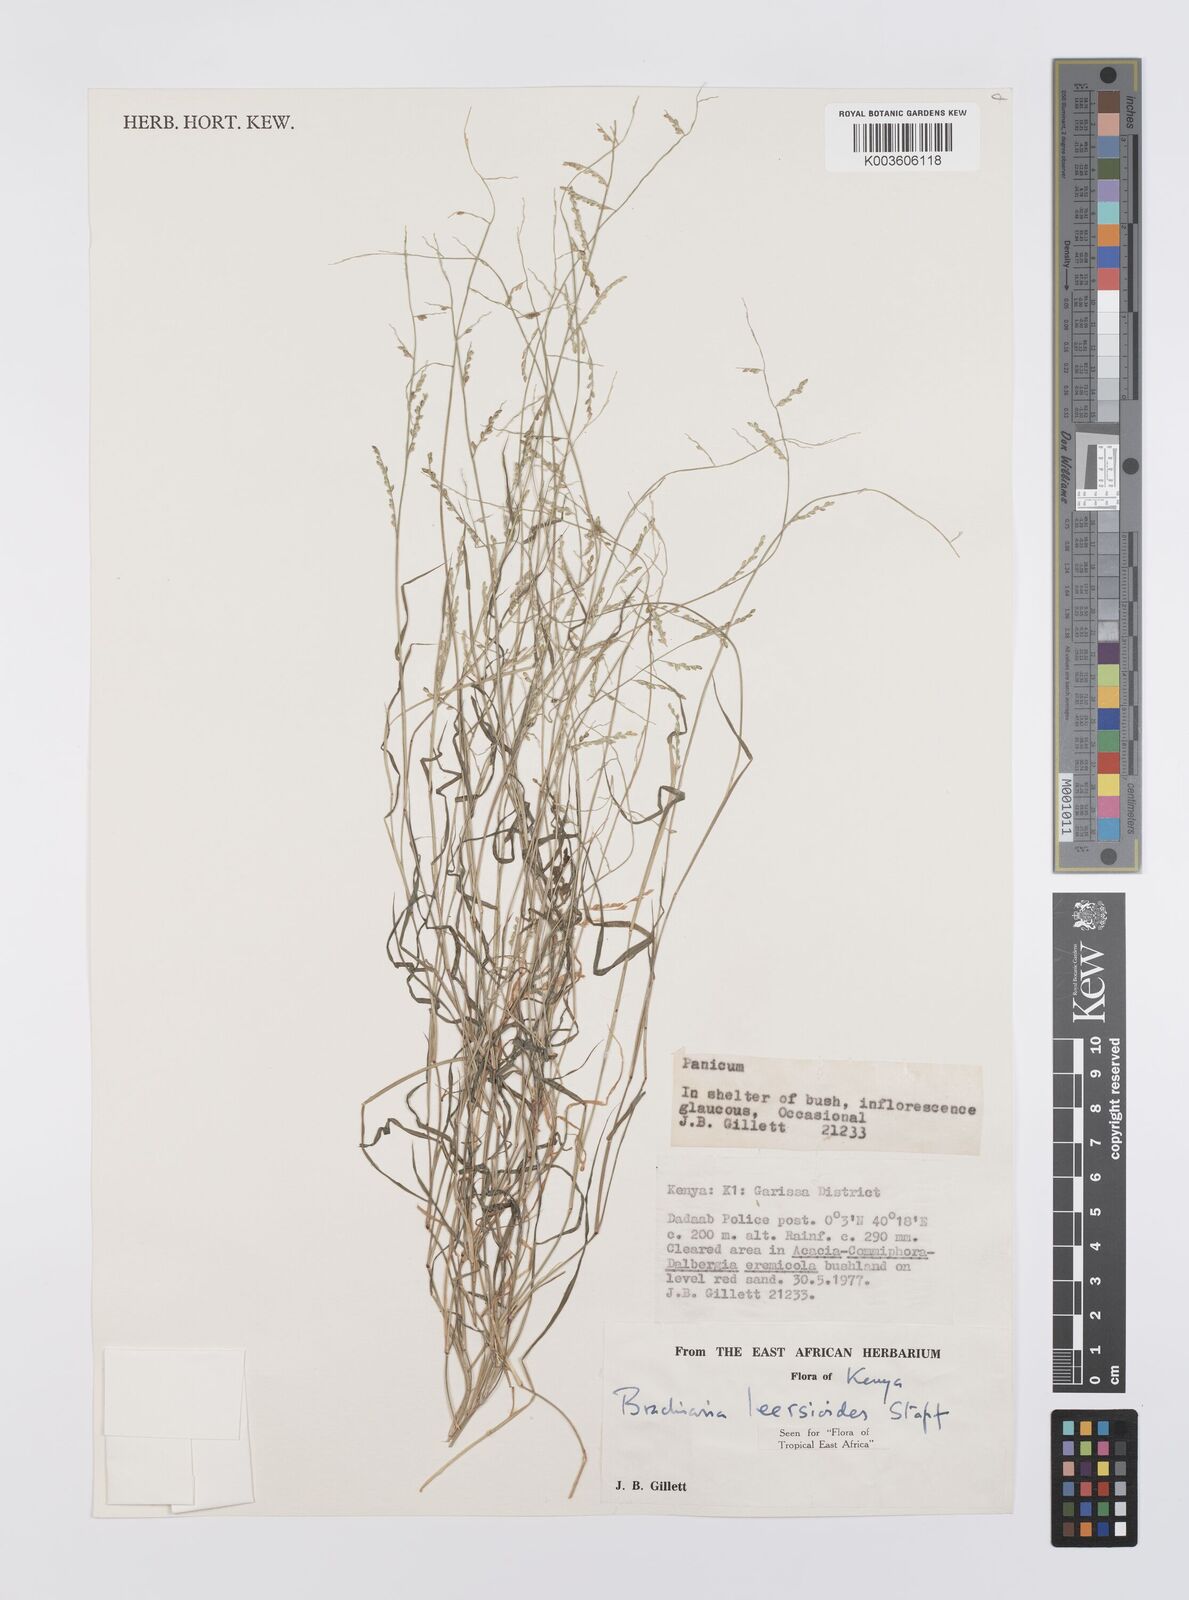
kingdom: Plantae
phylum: Tracheophyta
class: Liliopsida
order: Poales
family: Poaceae
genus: Urochloa
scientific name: Urochloa leersioides
